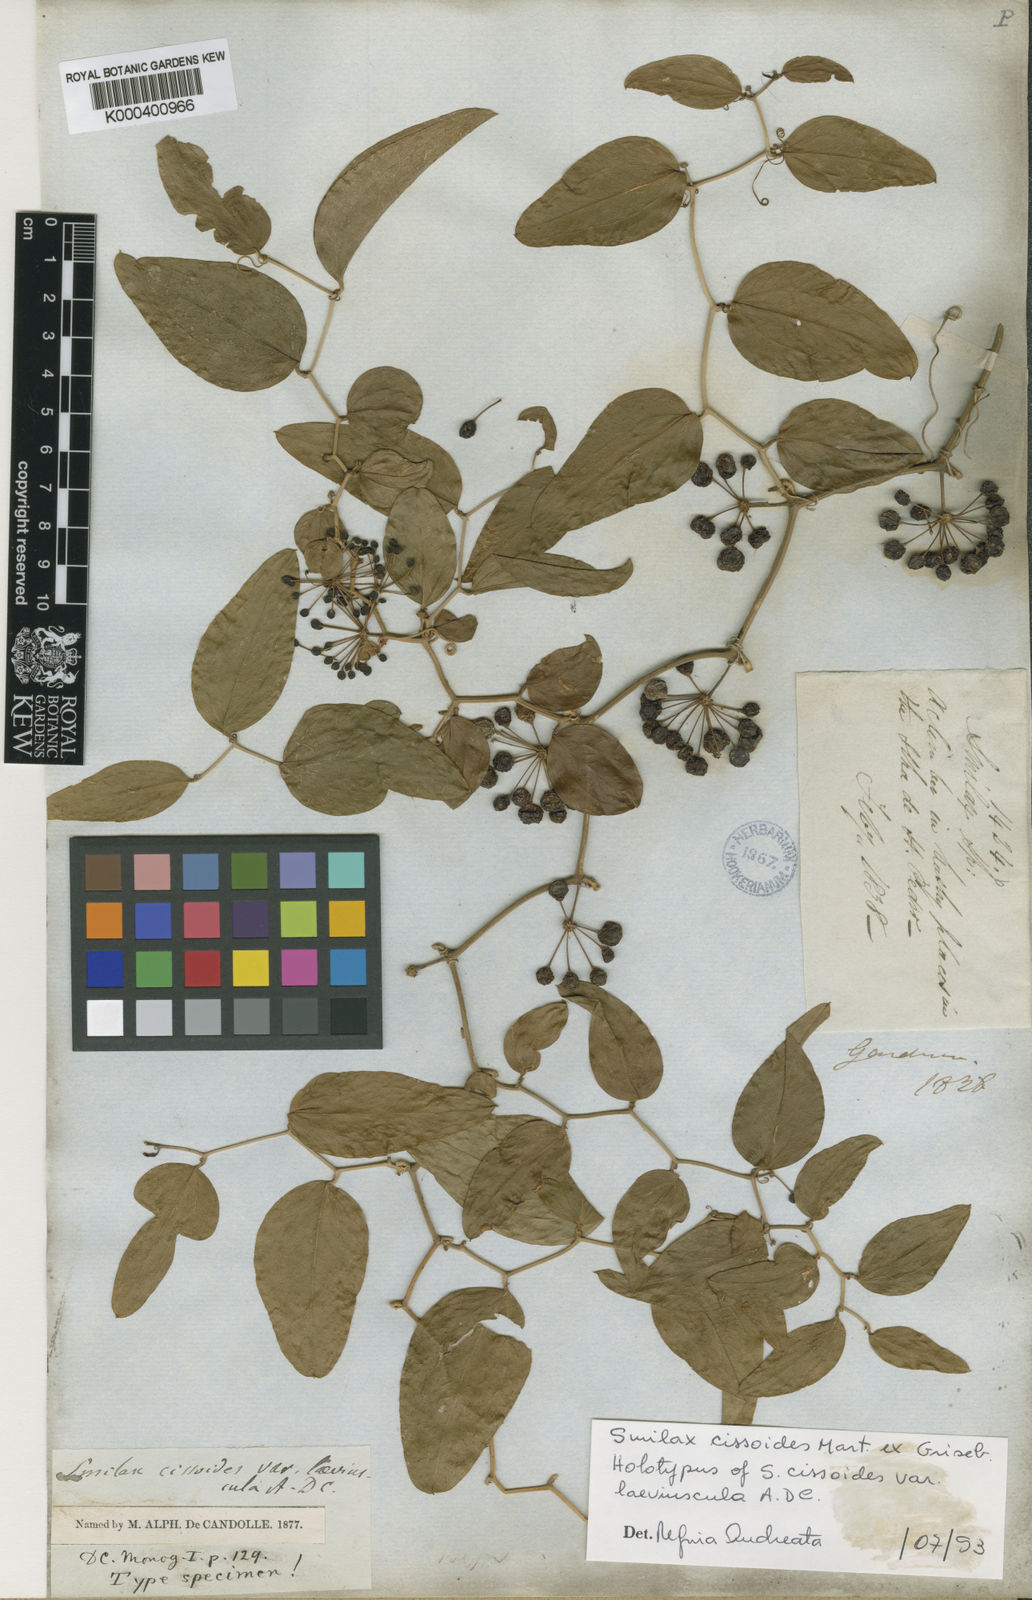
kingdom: Plantae
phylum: Tracheophyta
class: Liliopsida
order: Liliales
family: Smilacaceae
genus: Smilax
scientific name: Smilax cissoides
